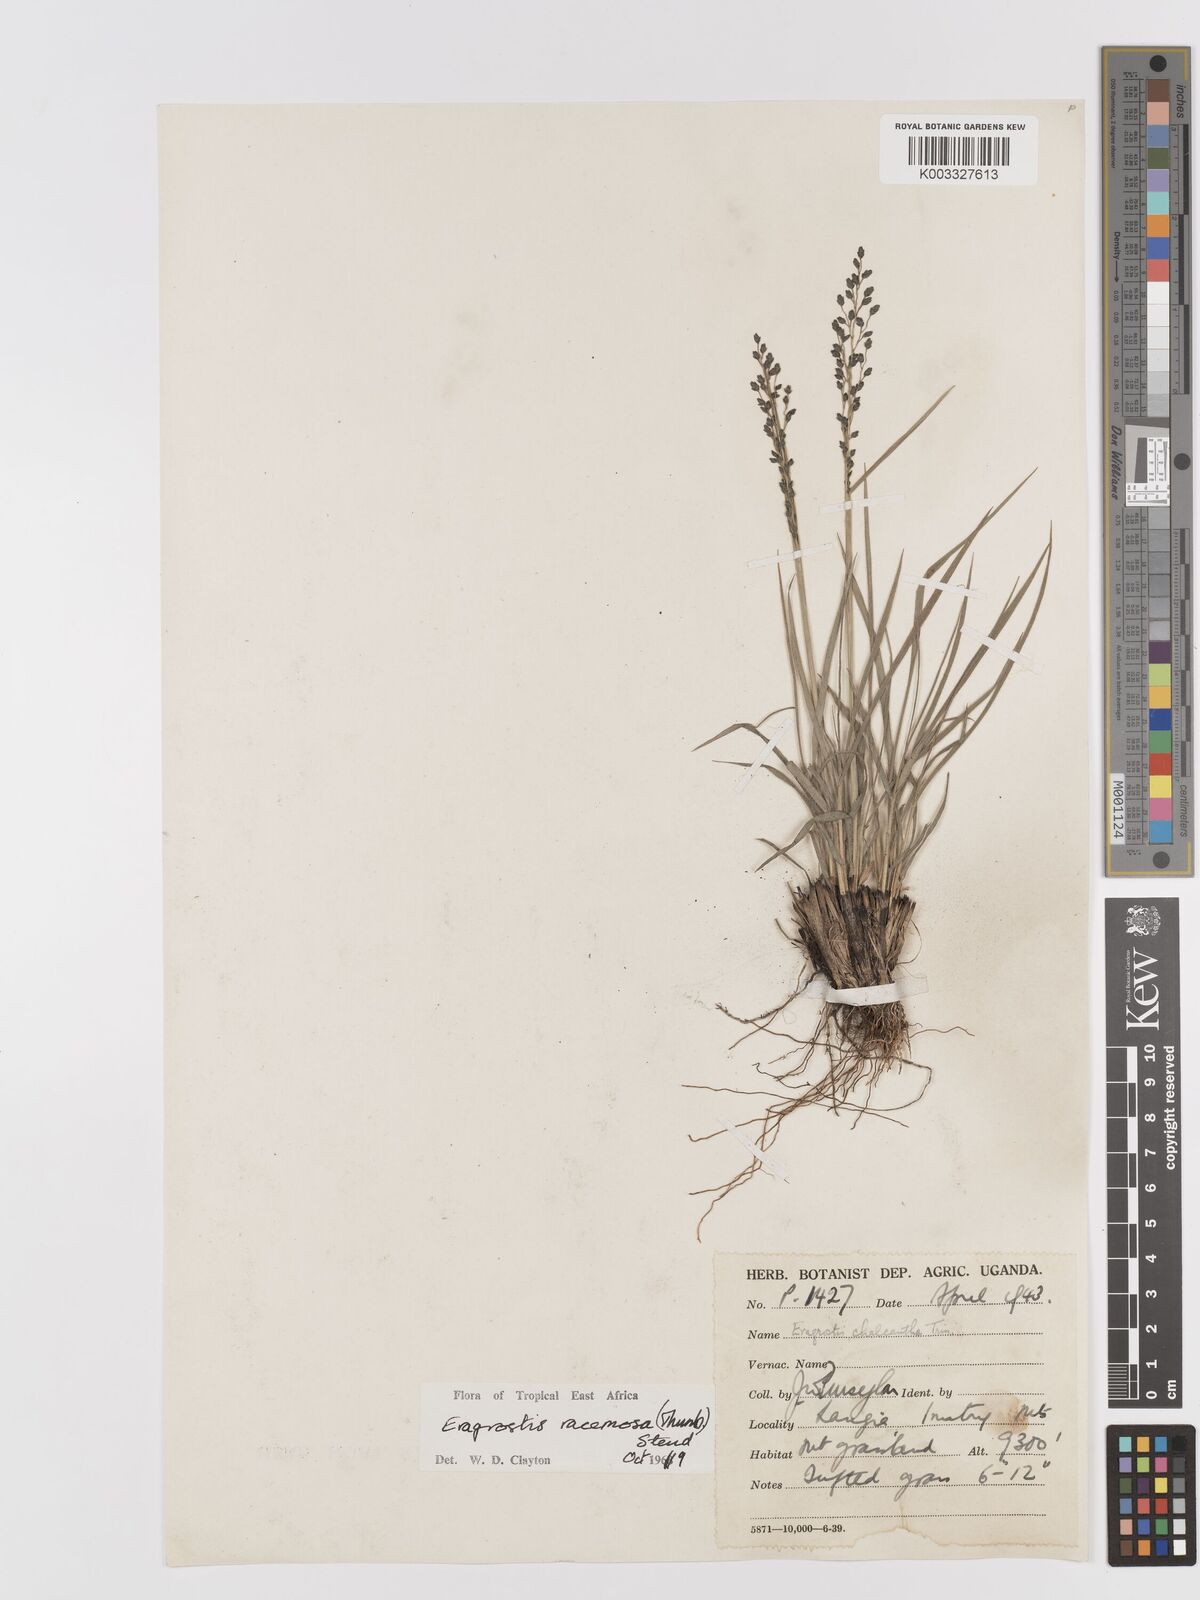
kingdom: Plantae
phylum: Tracheophyta
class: Liliopsida
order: Poales
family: Poaceae
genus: Eragrostis
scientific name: Eragrostis racemosa
